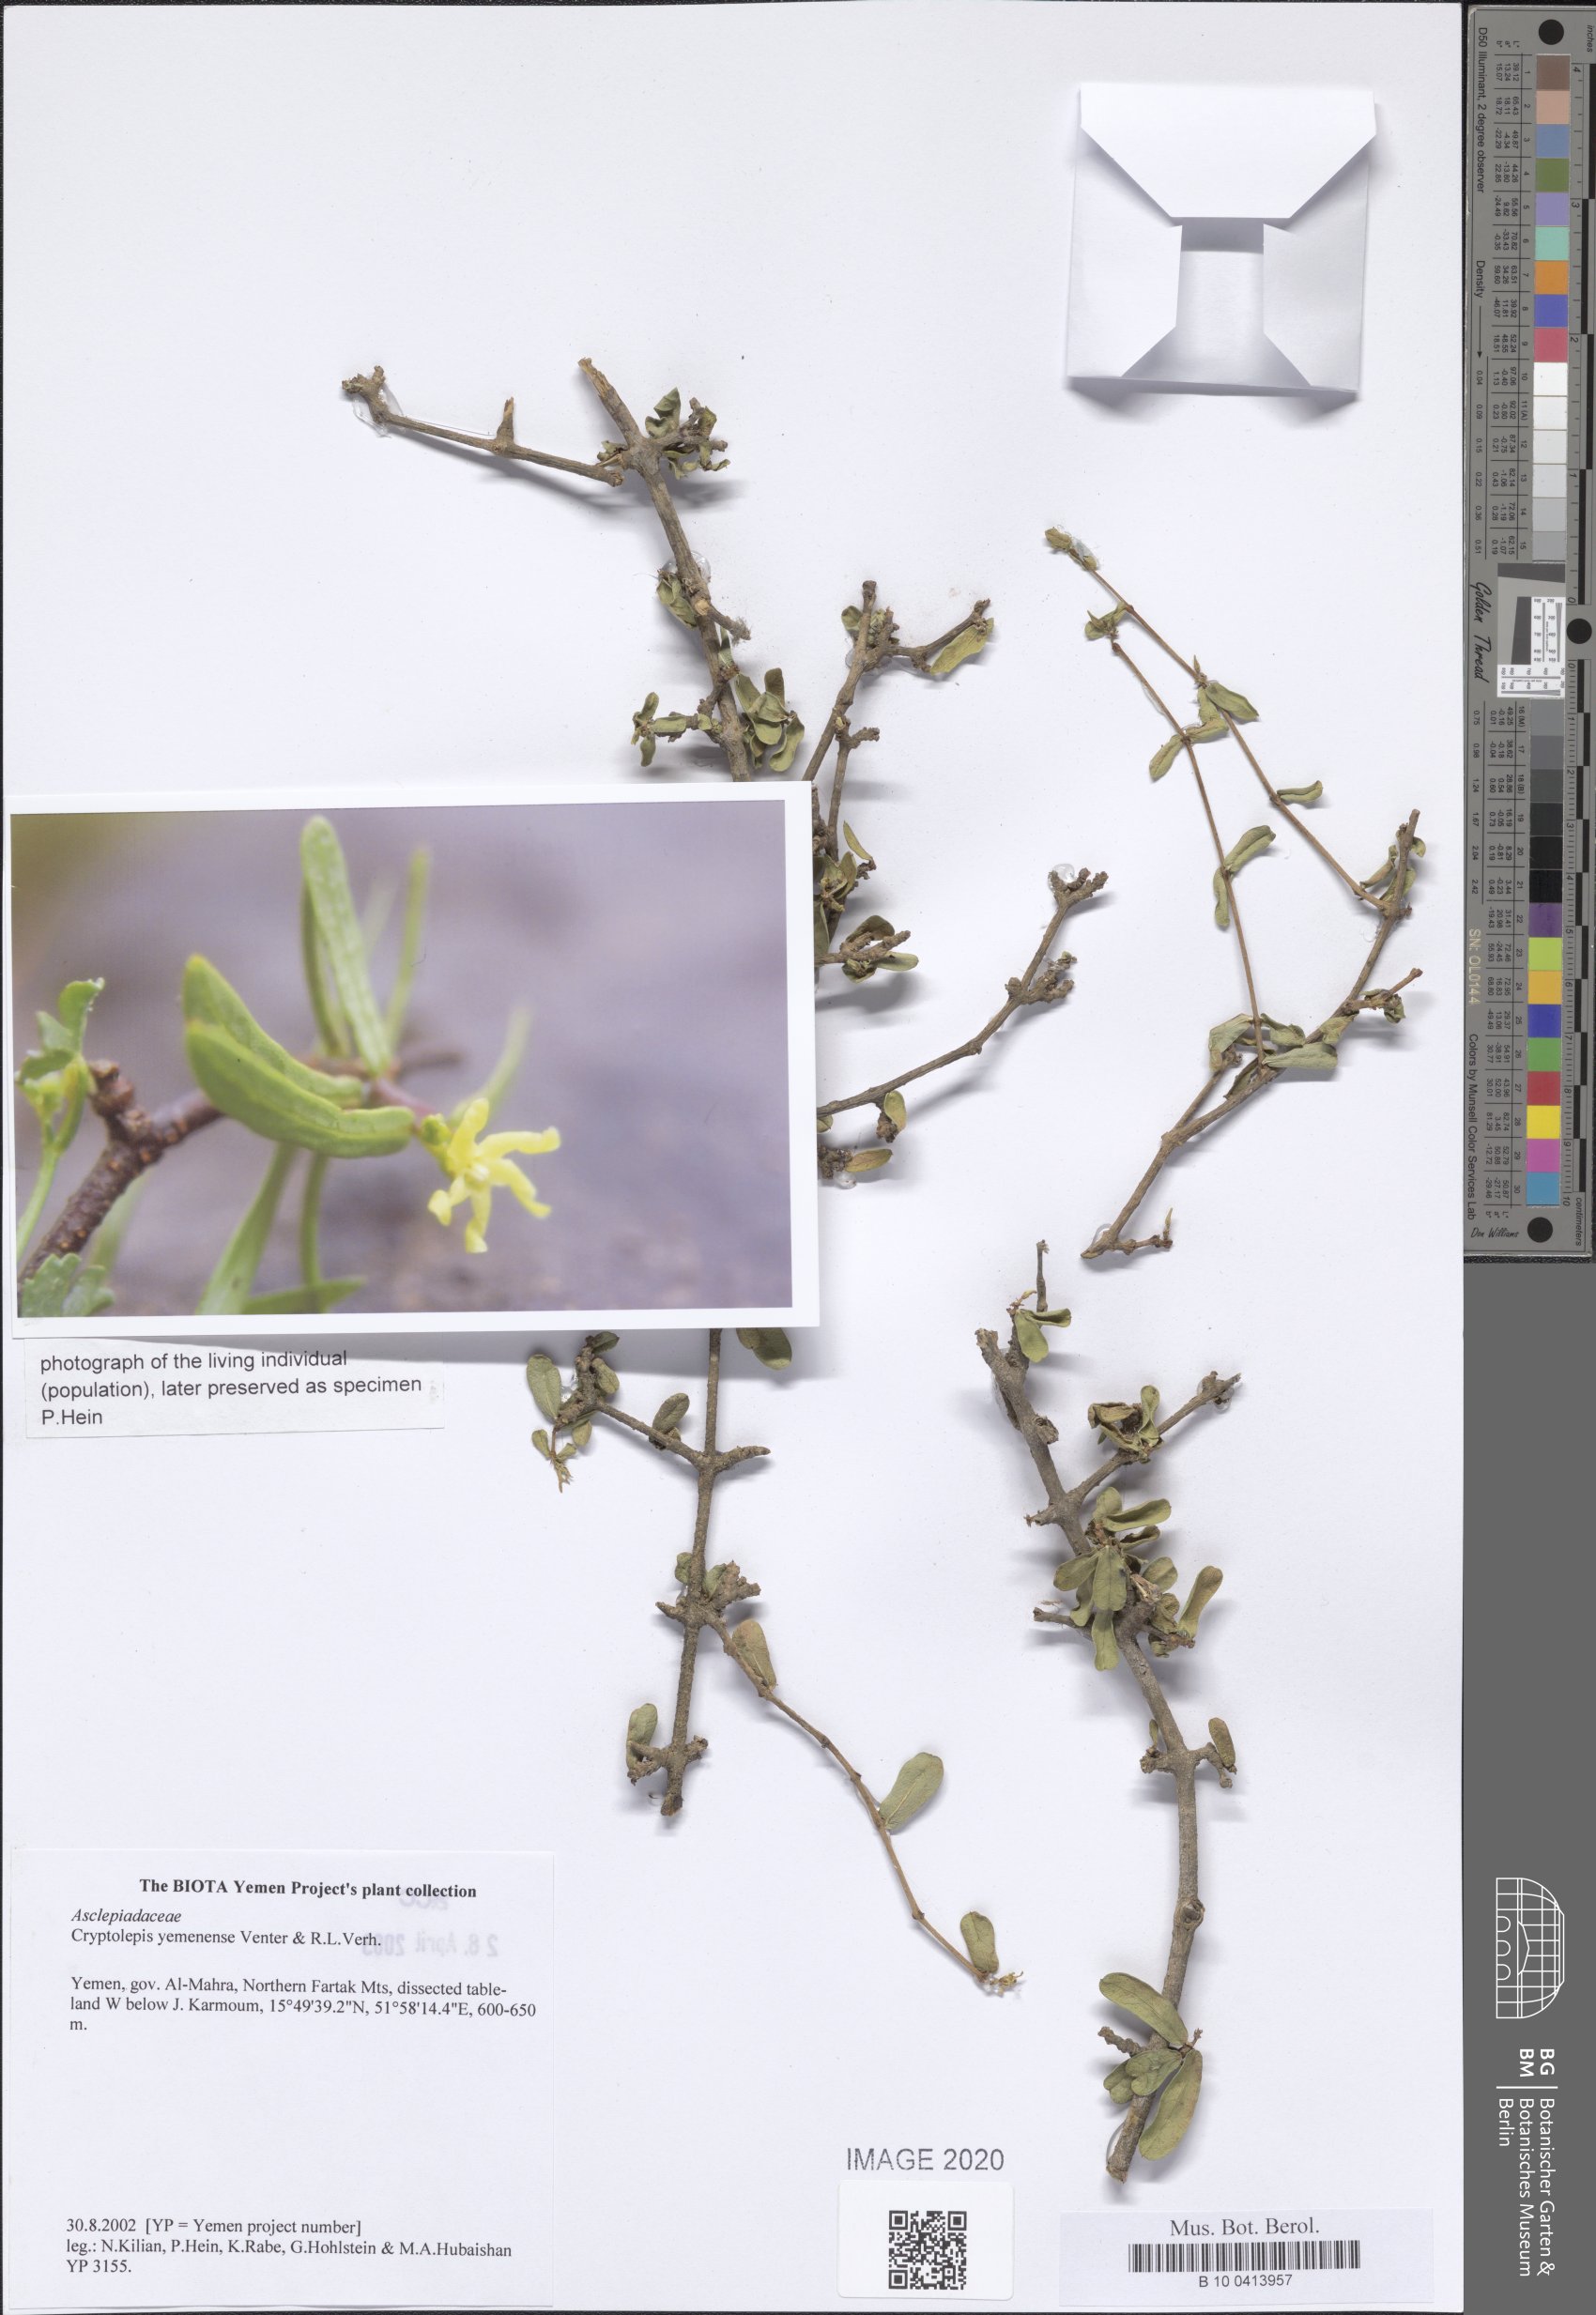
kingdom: Plantae
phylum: Tracheophyta
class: Magnoliopsida
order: Gentianales
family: Apocynaceae
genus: Cryptolepis
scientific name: Cryptolepis yemenensis
